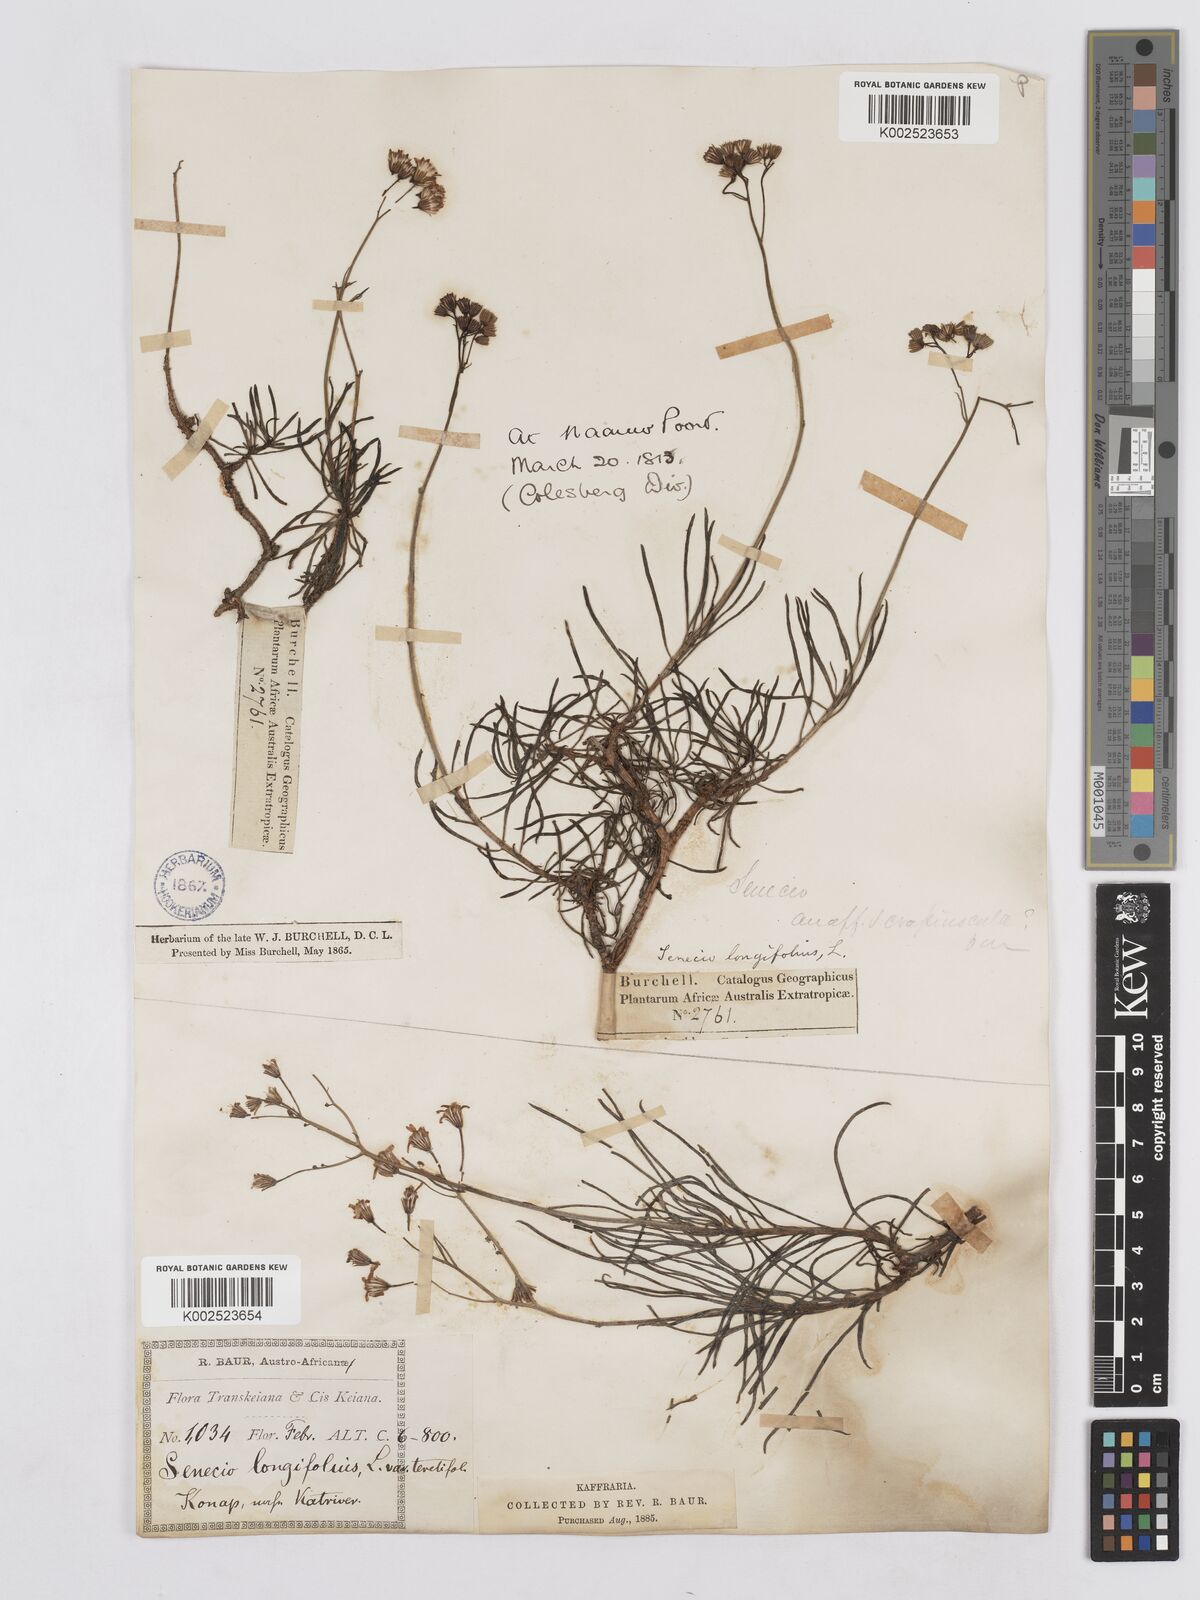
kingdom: Plantae
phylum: Tracheophyta
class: Magnoliopsida
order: Asterales
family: Asteraceae
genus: Senecio
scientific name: Senecio linifolius
